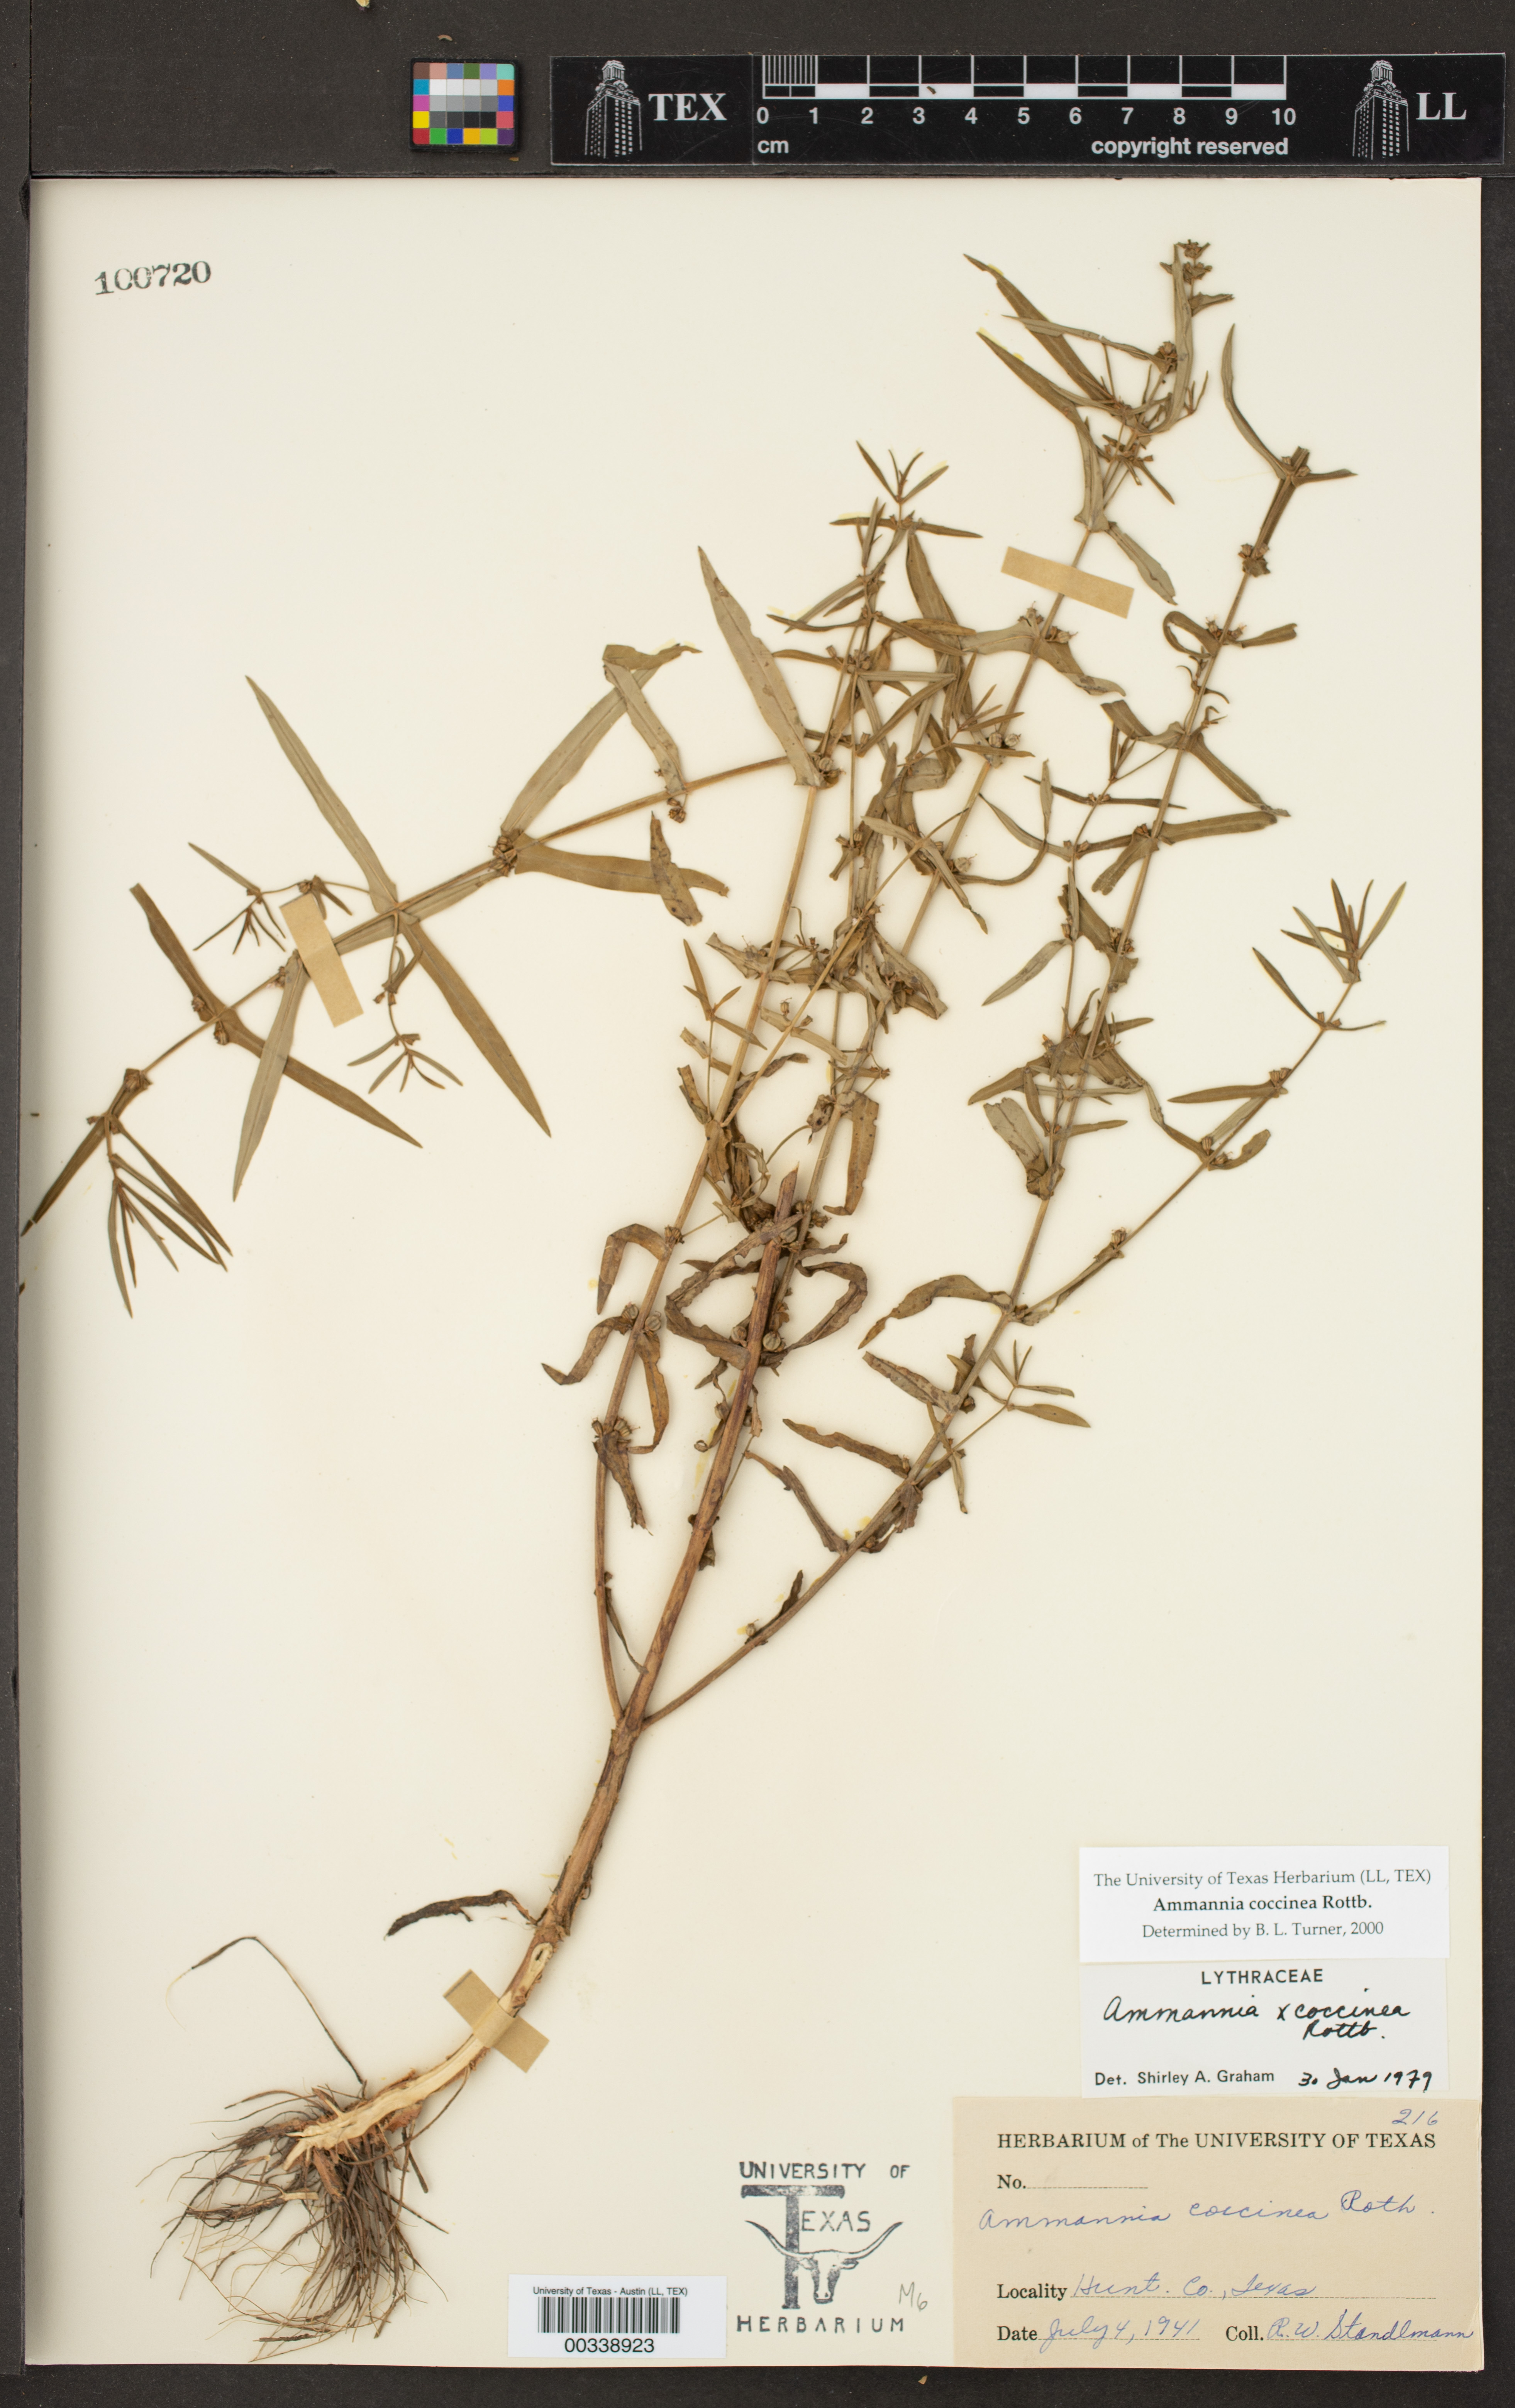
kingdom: Plantae
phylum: Tracheophyta
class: Magnoliopsida
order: Myrtales
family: Lythraceae
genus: Ammannia
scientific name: Ammannia coccinea
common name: Valley redstem
